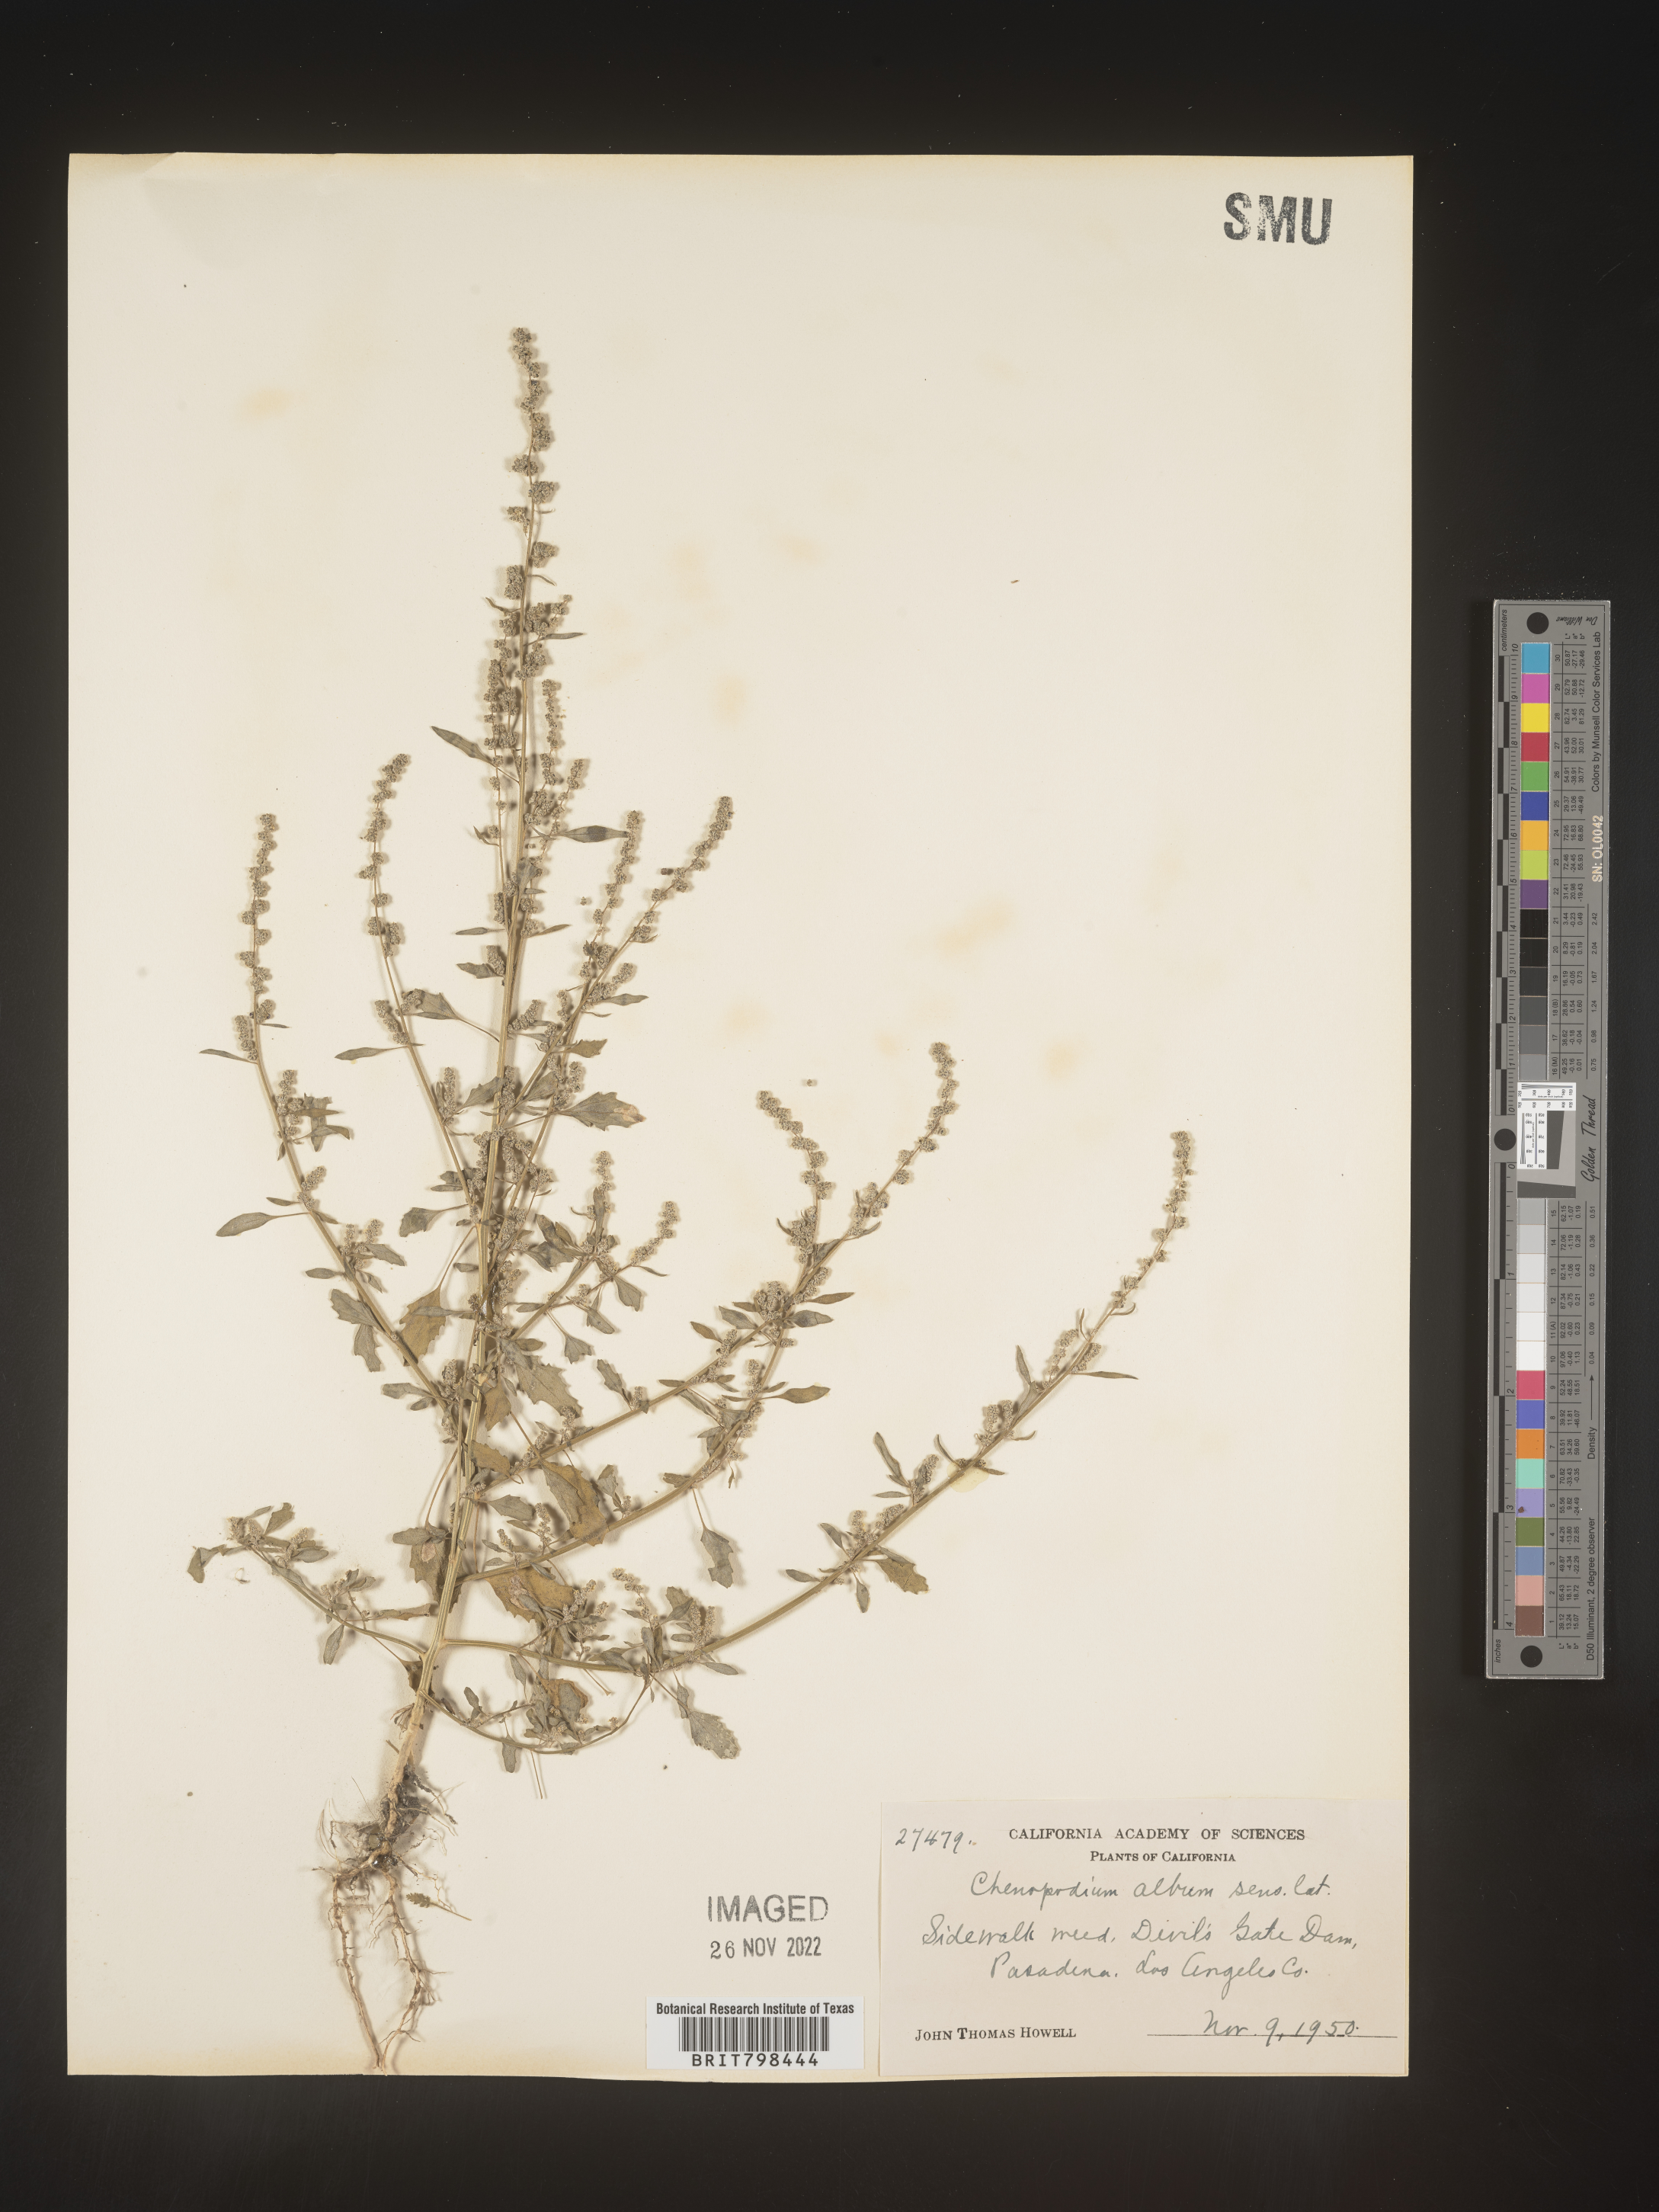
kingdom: Plantae
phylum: Tracheophyta
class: Magnoliopsida
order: Caryophyllales
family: Amaranthaceae
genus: Chenopodium
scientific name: Chenopodium album
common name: Fat-hen
